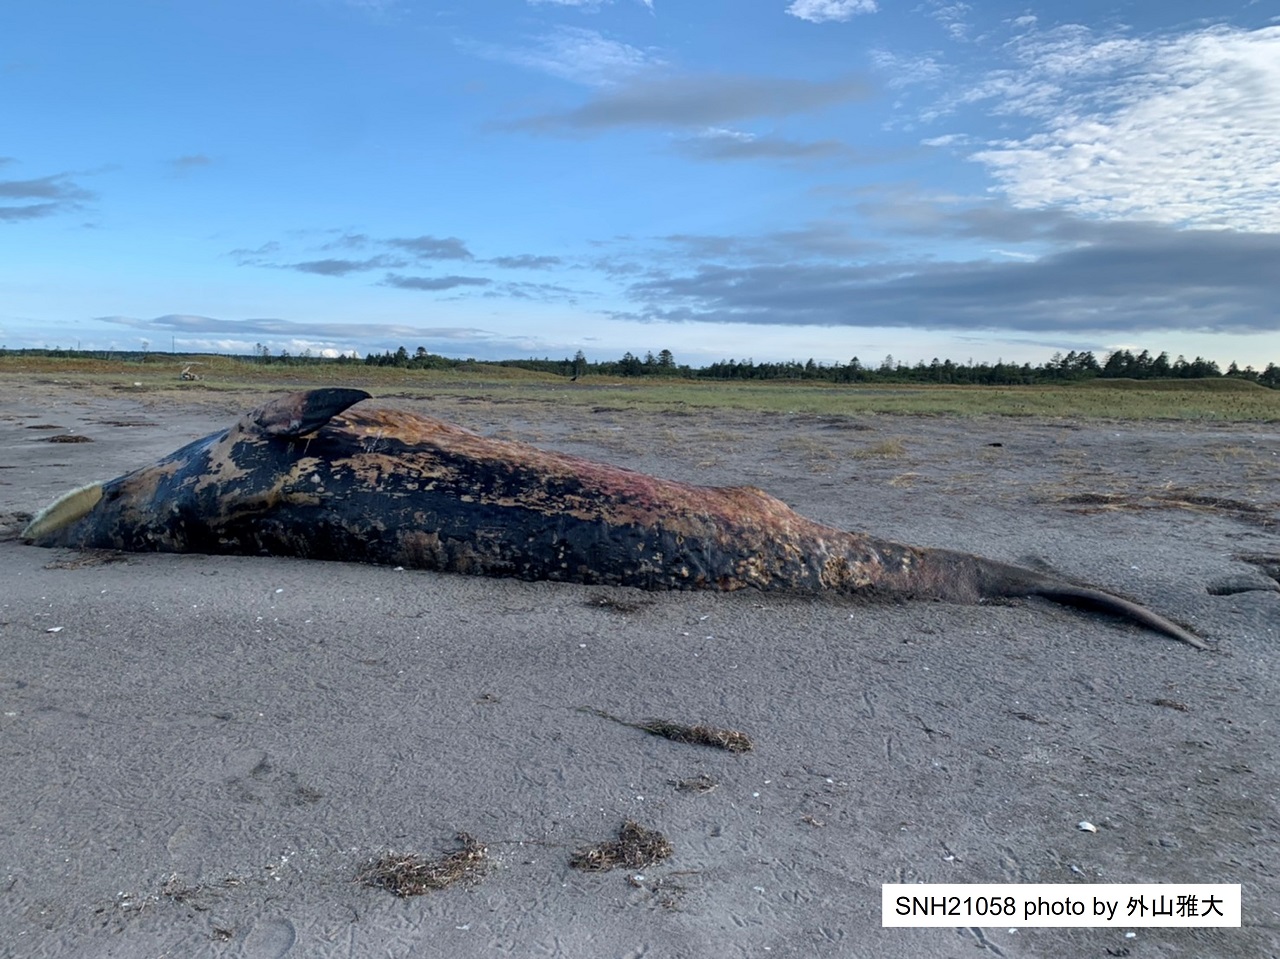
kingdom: Animalia
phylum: Chordata
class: Mammalia
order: Cetacea
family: Balaenopteridae
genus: Balaenoptera
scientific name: Balaenoptera acutorostrata
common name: Minke whale
